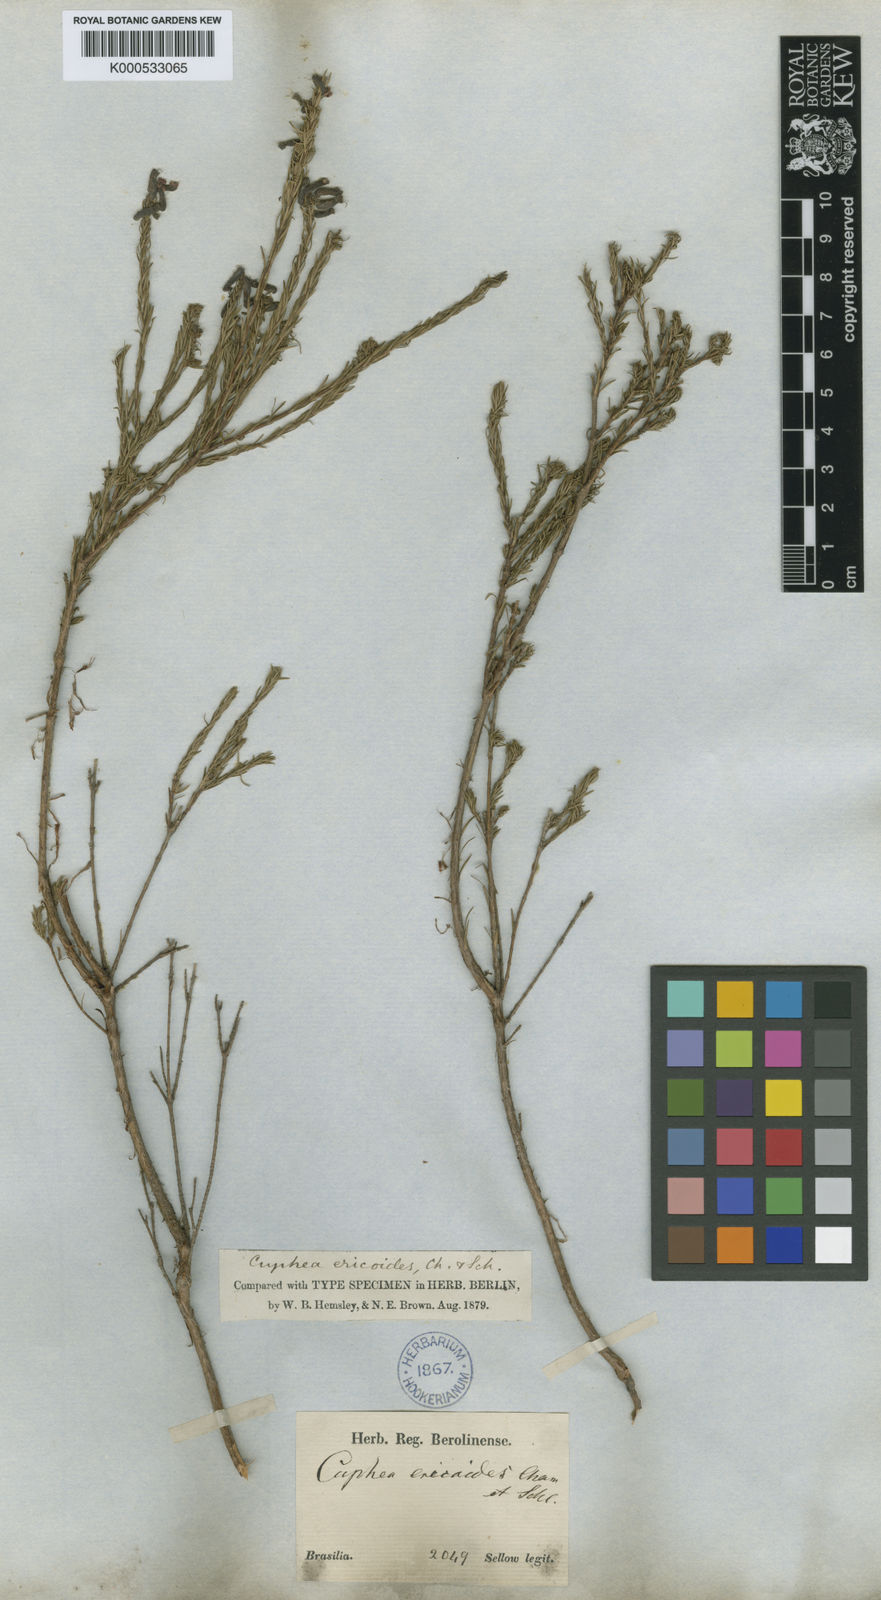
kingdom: Plantae
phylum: Tracheophyta
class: Magnoliopsida
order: Myrtales
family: Lythraceae
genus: Cuphea
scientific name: Cuphea ericoides
